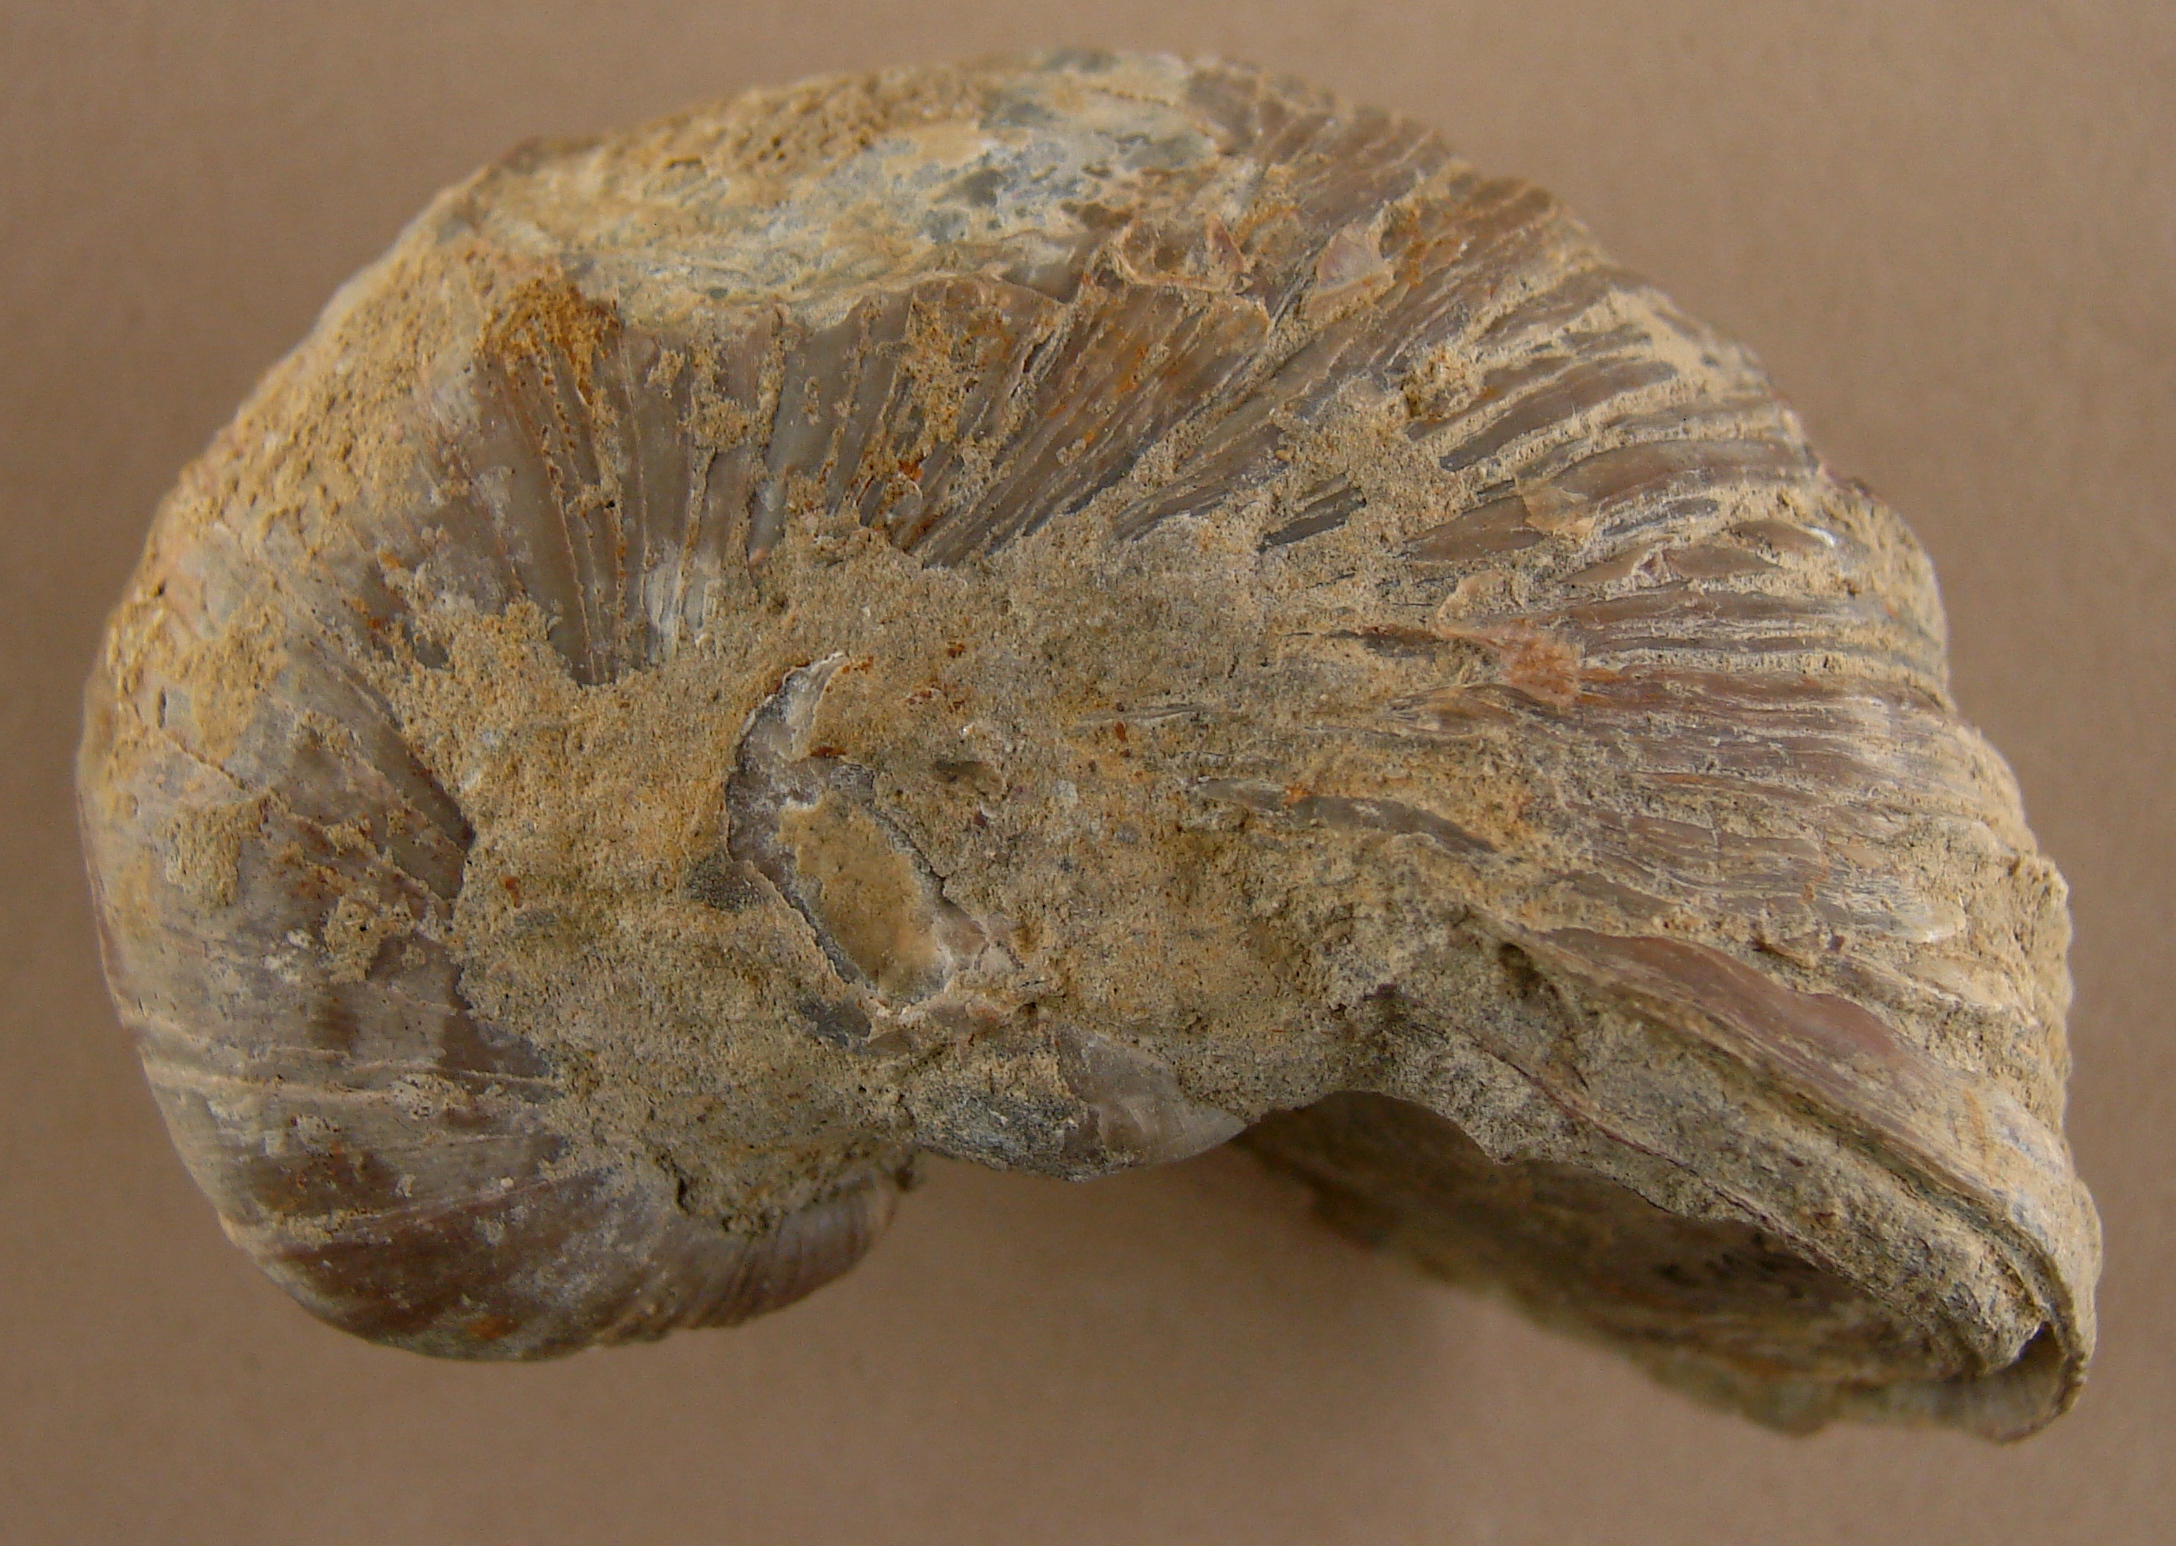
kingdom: Animalia
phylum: Mollusca
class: Bivalvia
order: Ostreida
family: Gryphaeidae
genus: Gryphaea
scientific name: Gryphaea arcuata
